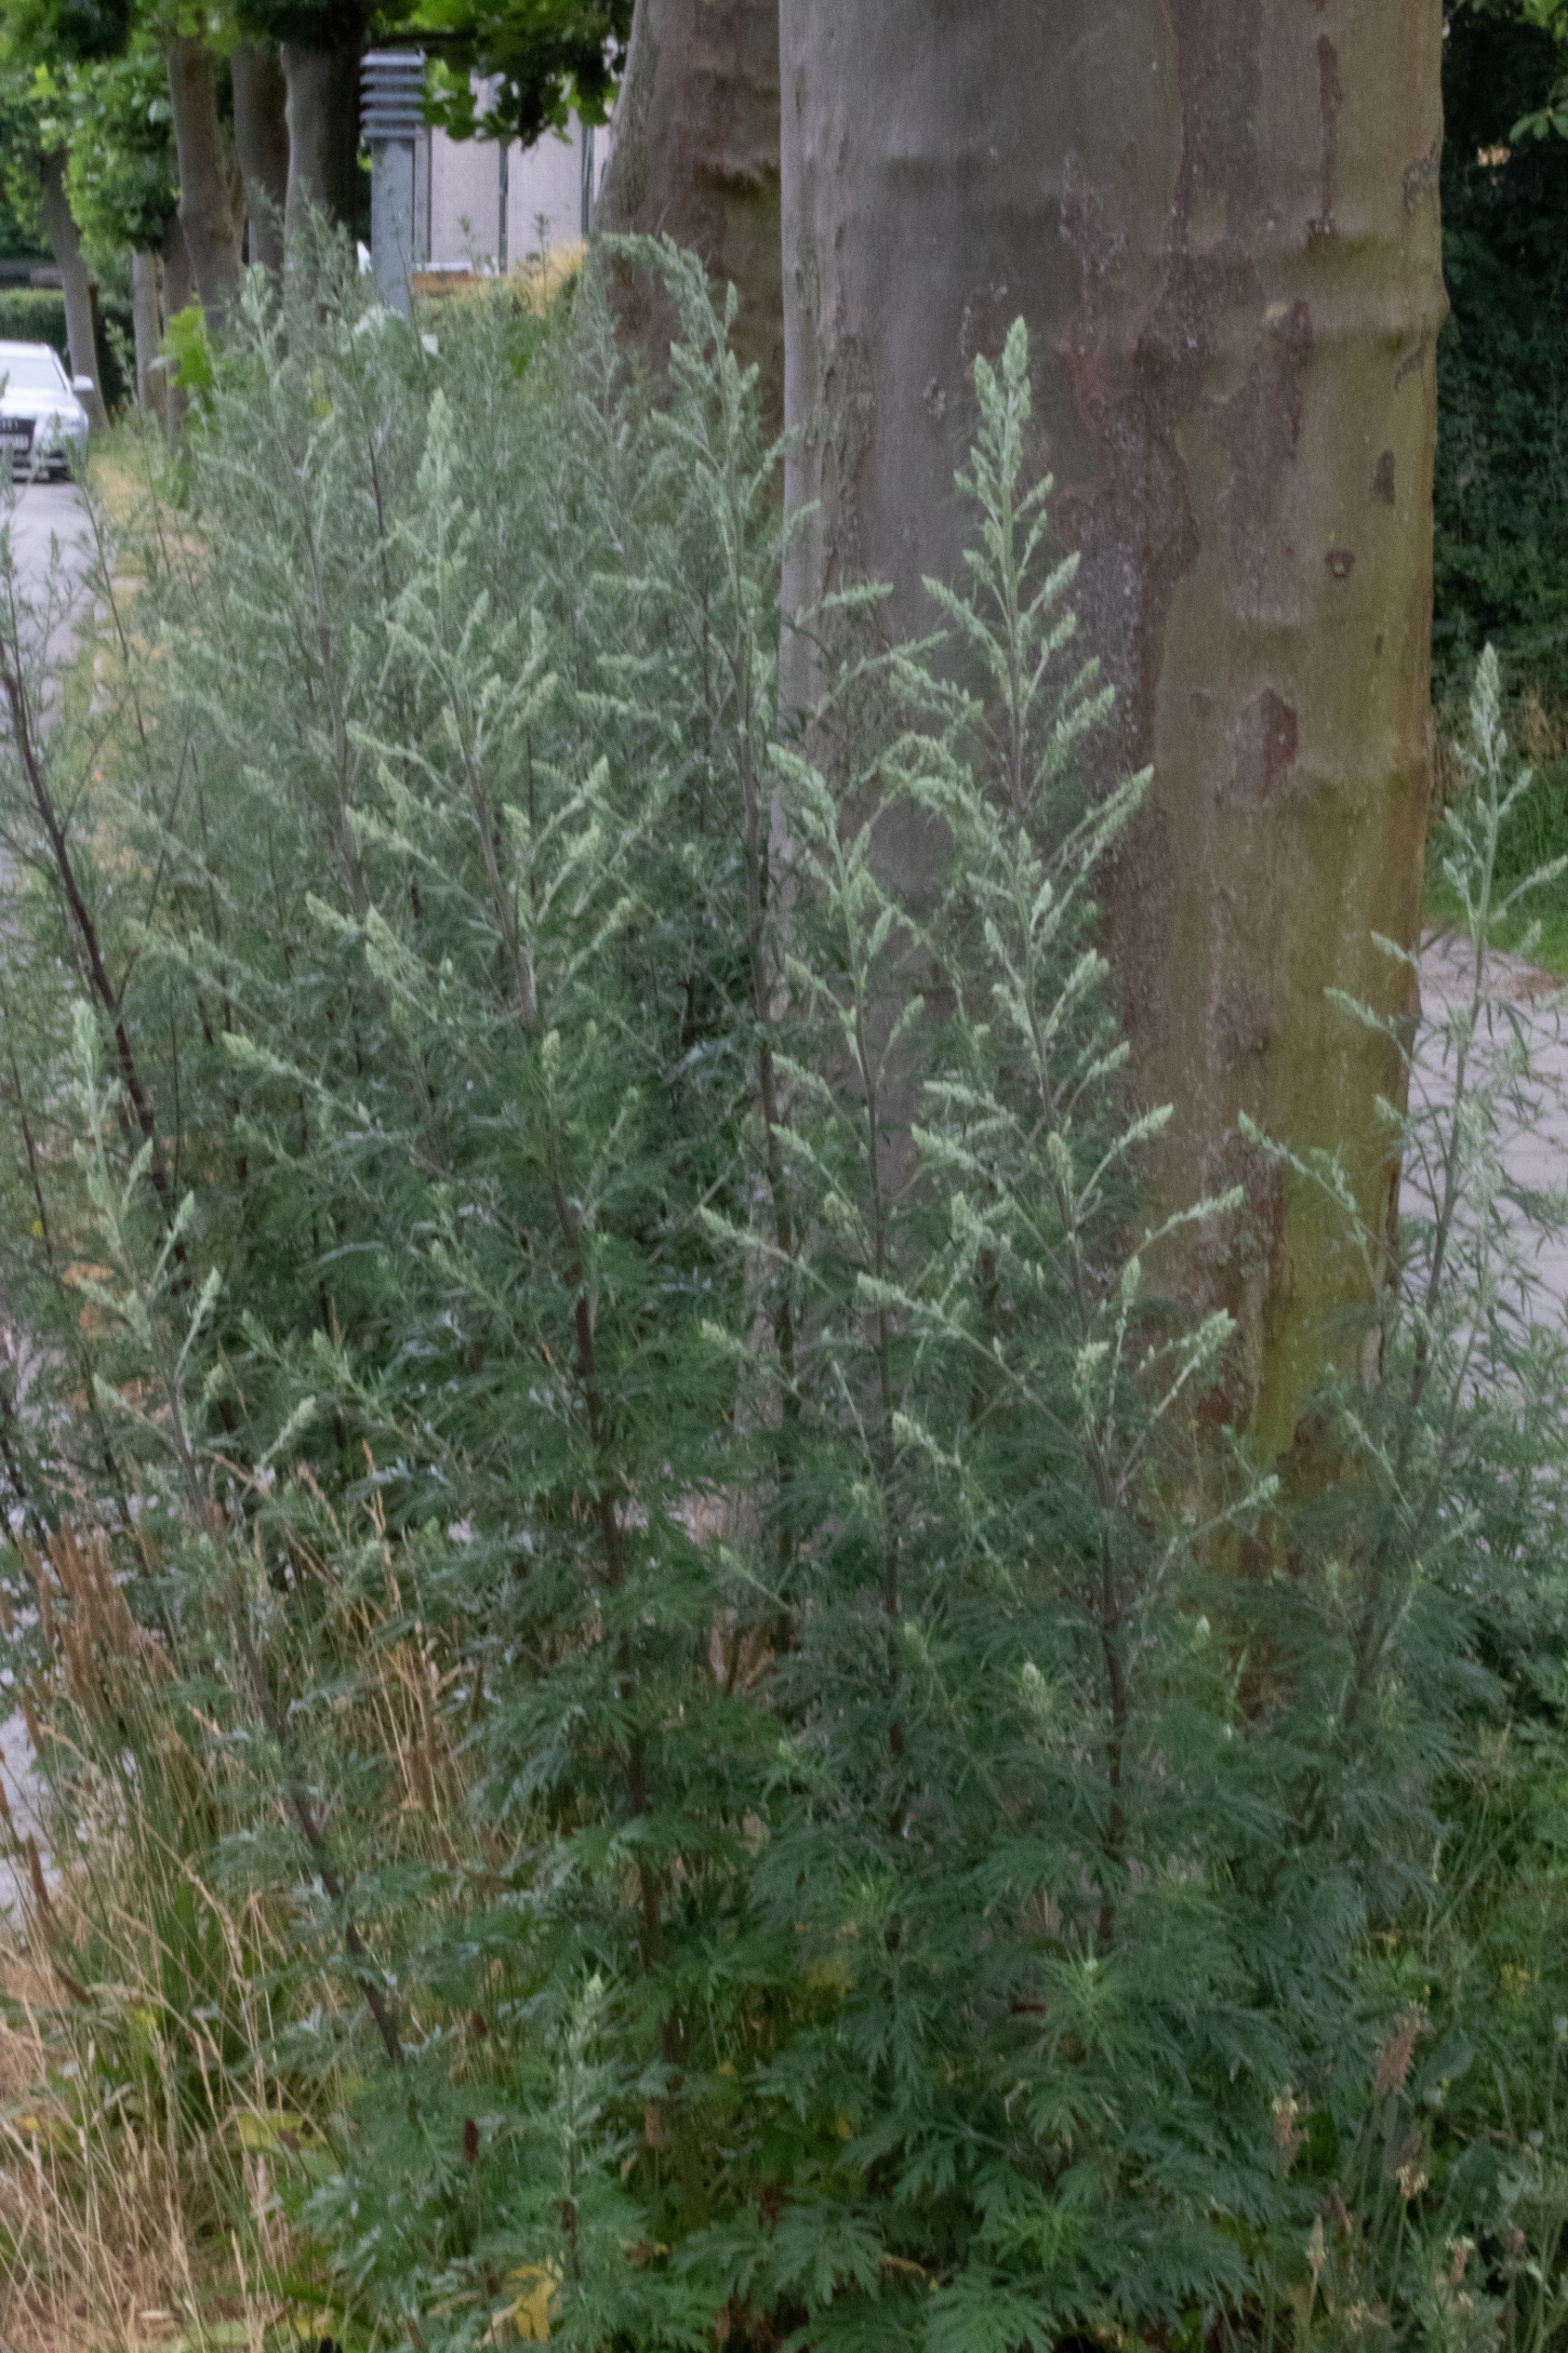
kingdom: Plantae
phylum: Tracheophyta
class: Magnoliopsida
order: Asterales
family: Asteraceae
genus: Artemisia
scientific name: Artemisia vulgaris
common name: Grå-bynke
